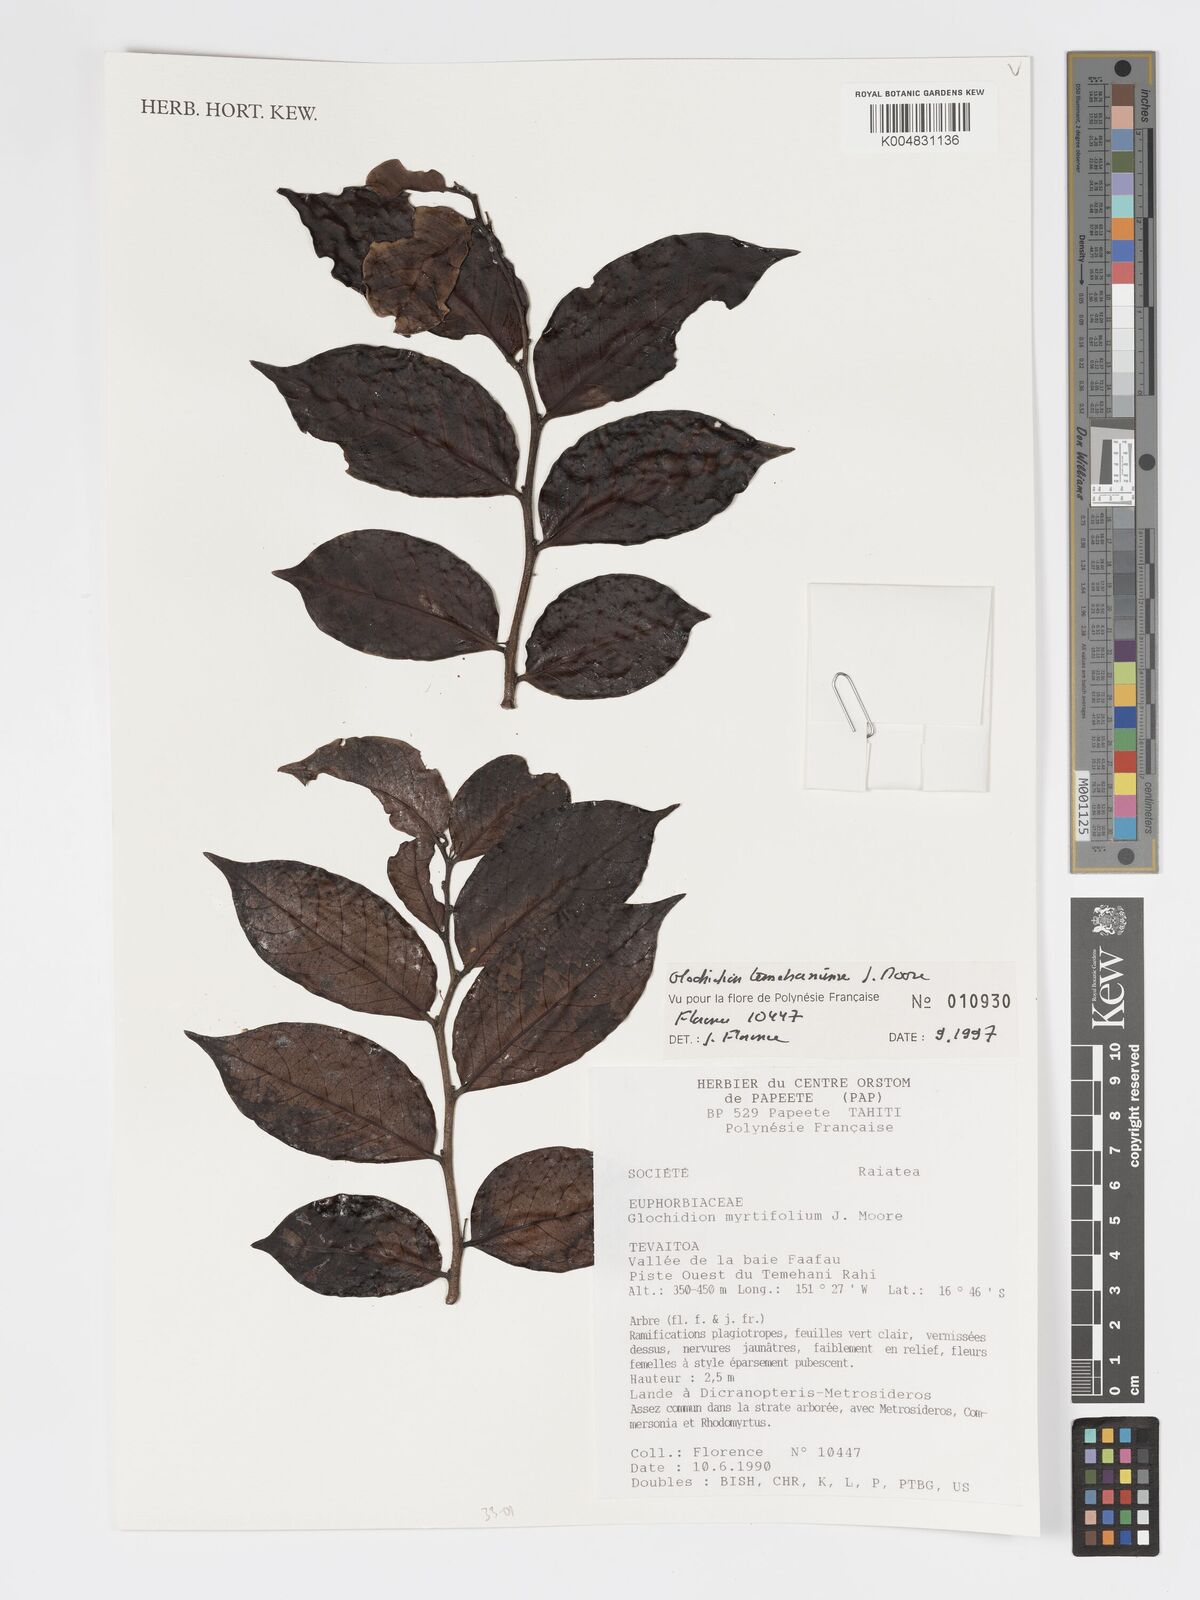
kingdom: Plantae
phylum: Tracheophyta
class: Magnoliopsida
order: Malpighiales
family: Phyllanthaceae
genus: Glochidion
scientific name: Glochidion temehaniense
